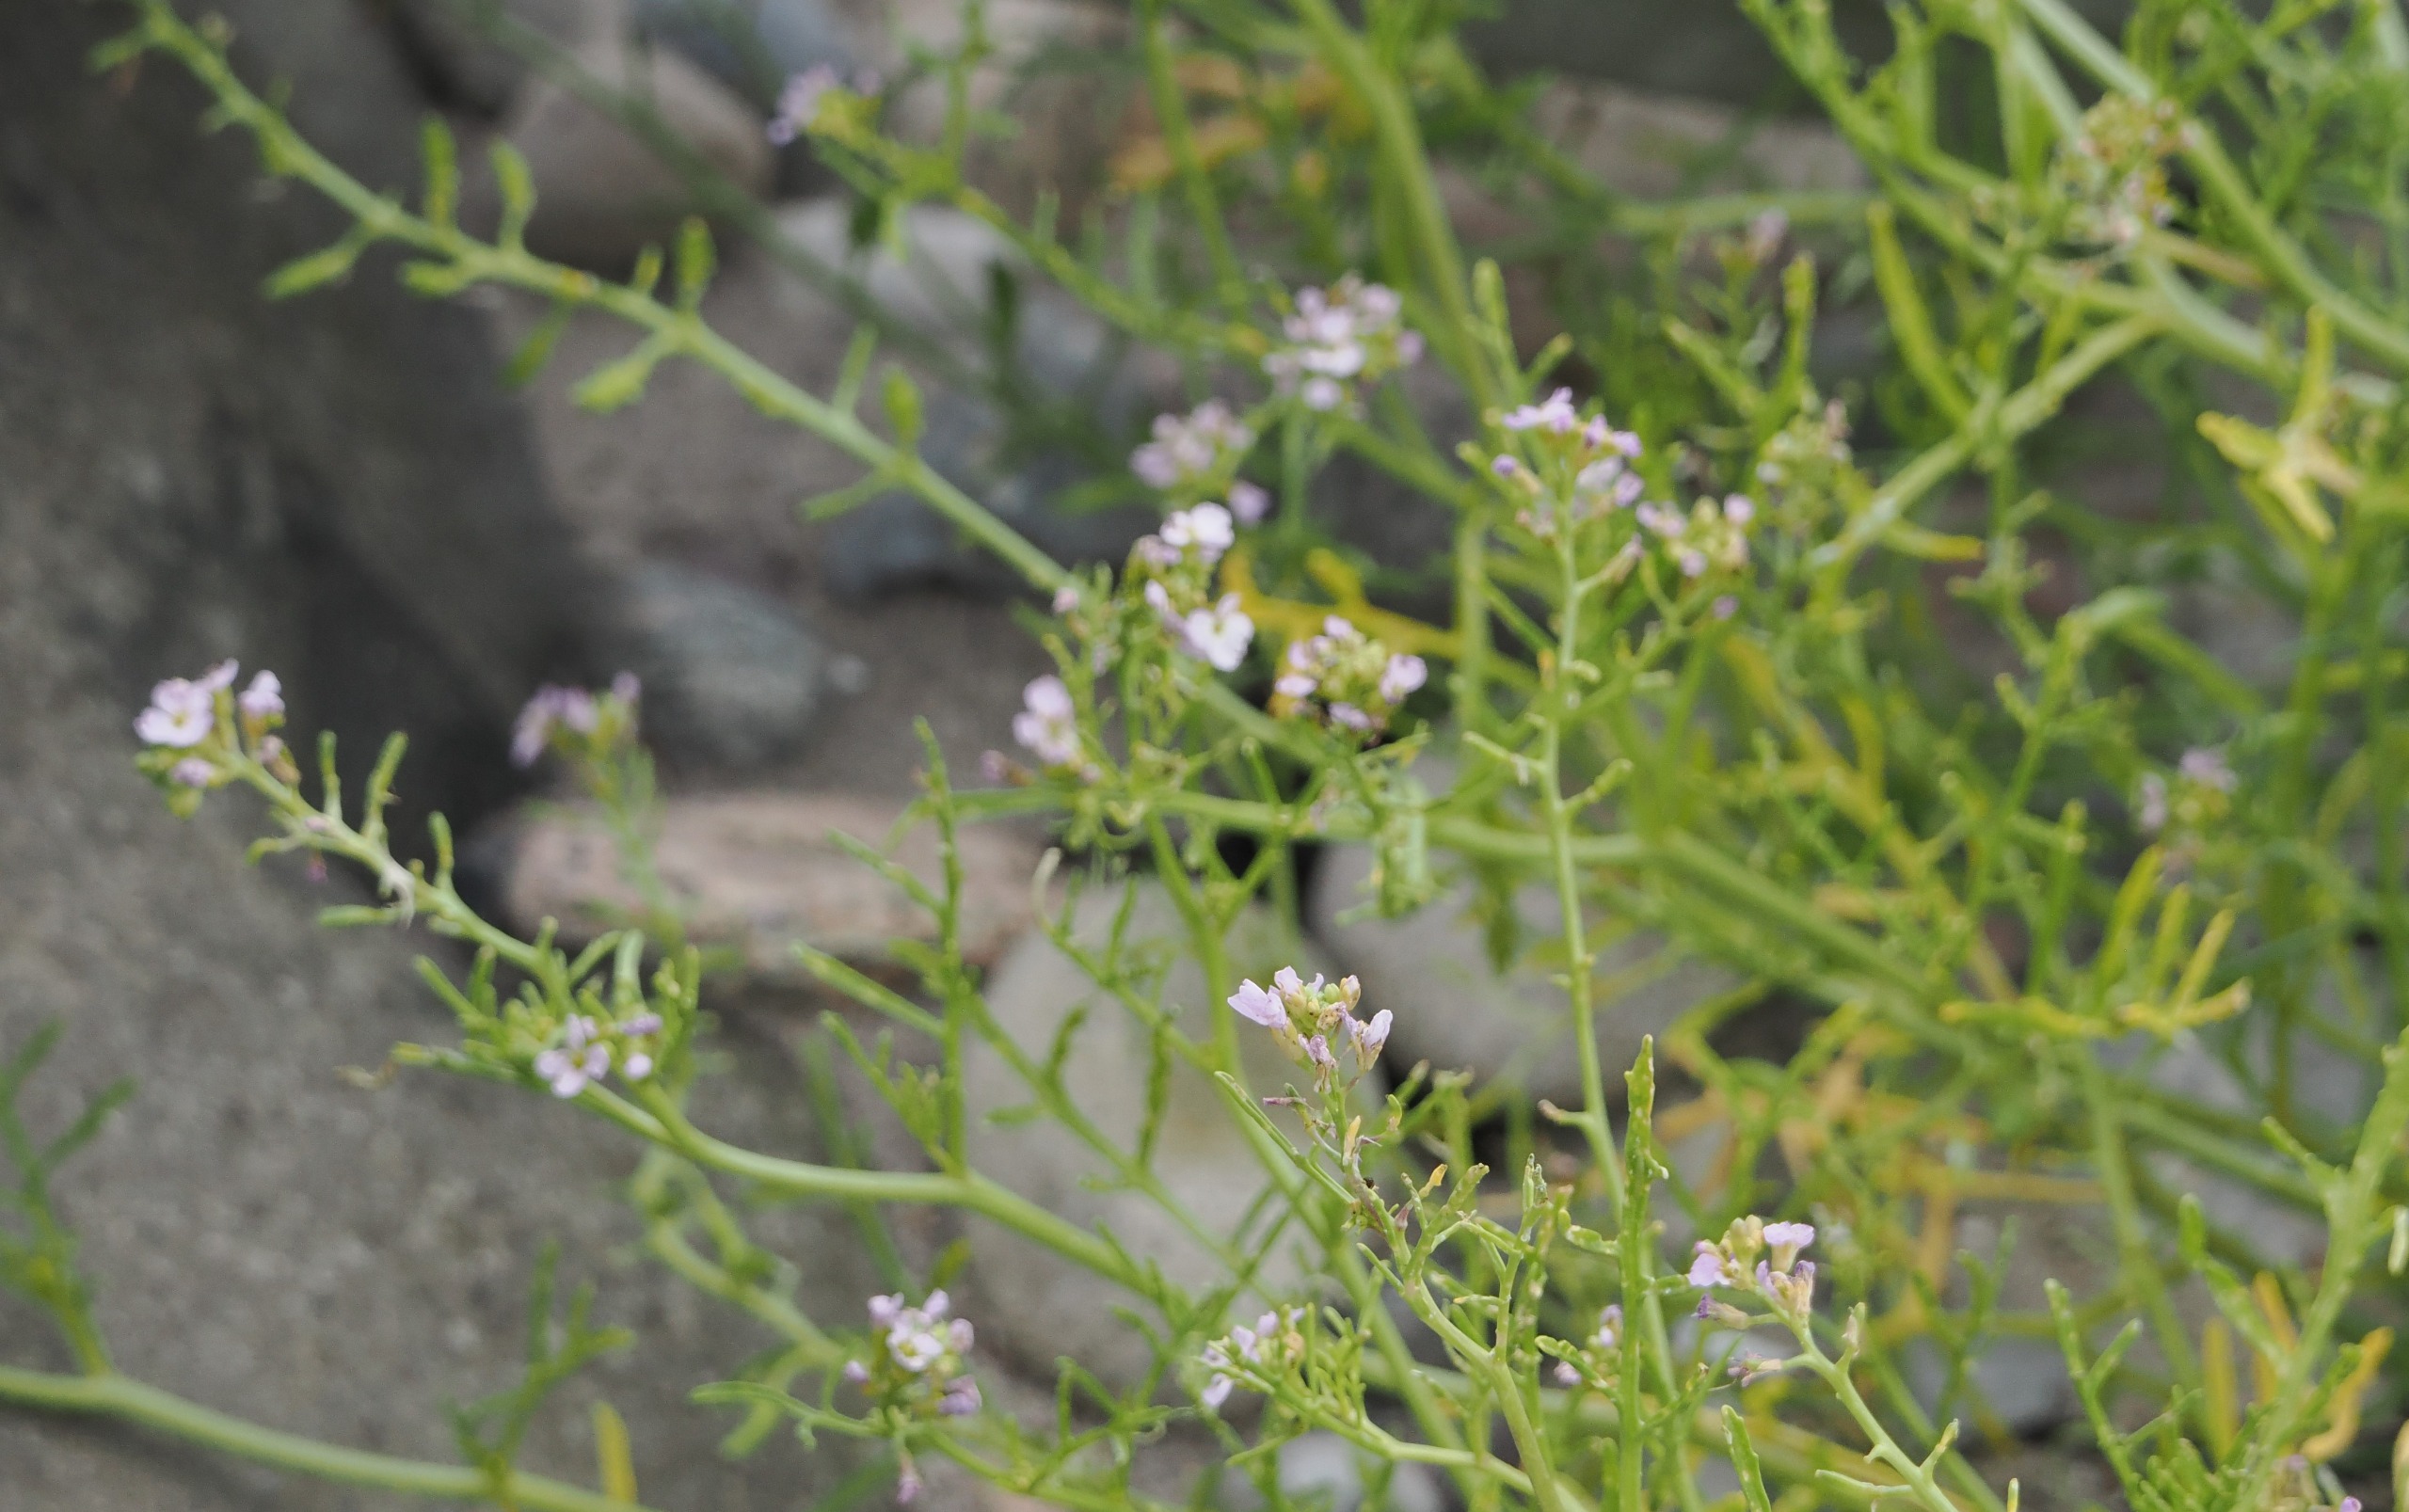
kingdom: Plantae
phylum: Tracheophyta
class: Magnoliopsida
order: Brassicales
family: Brassicaceae
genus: Cakile
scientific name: Cakile maritima
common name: Strandsennep
